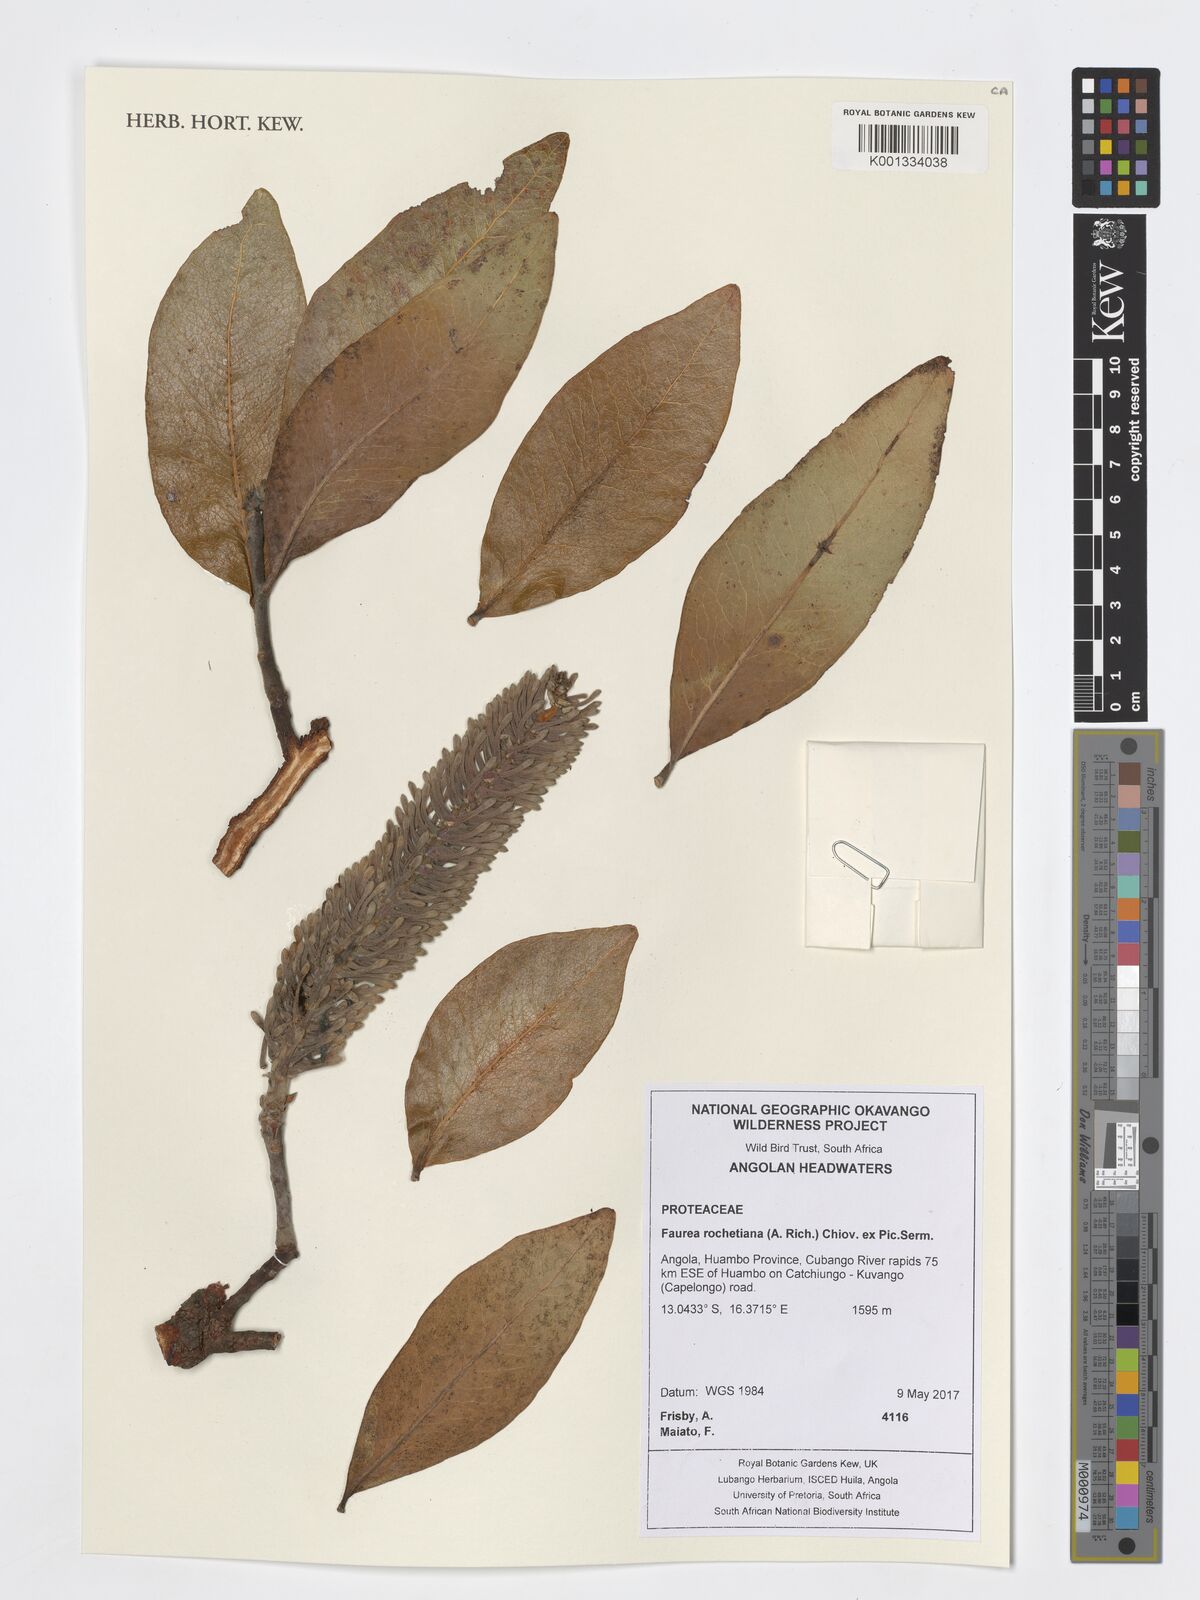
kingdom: Plantae
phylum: Tracheophyta
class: Magnoliopsida
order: Proteales
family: Proteaceae
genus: Faurea
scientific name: Faurea rochetiana
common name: Broad-leaved beech
